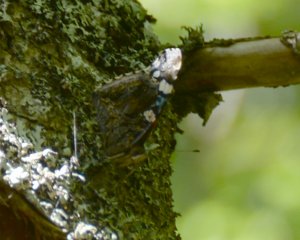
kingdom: Animalia
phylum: Arthropoda
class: Insecta
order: Lepidoptera
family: Nymphalidae
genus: Vanessa
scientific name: Vanessa atalanta
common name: Red Admiral
